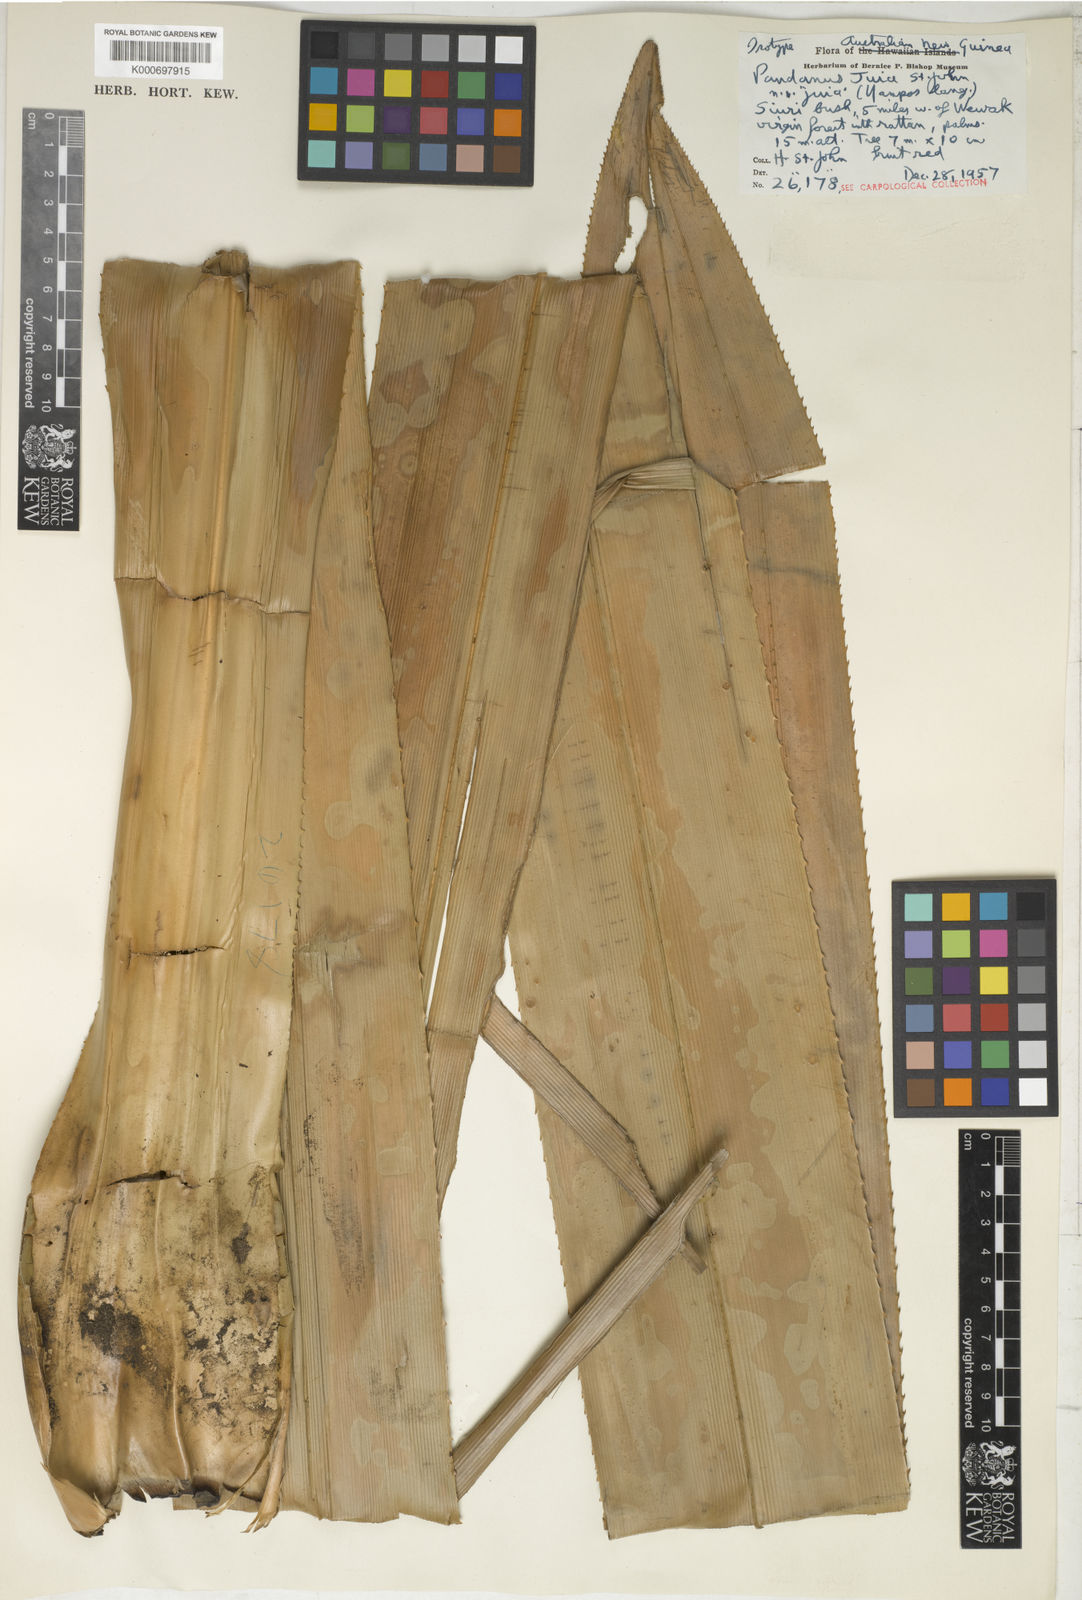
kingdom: Plantae
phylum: Tracheophyta
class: Liliopsida
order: Pandanales
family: Pandanaceae
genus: Pandanus
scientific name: Pandanus
